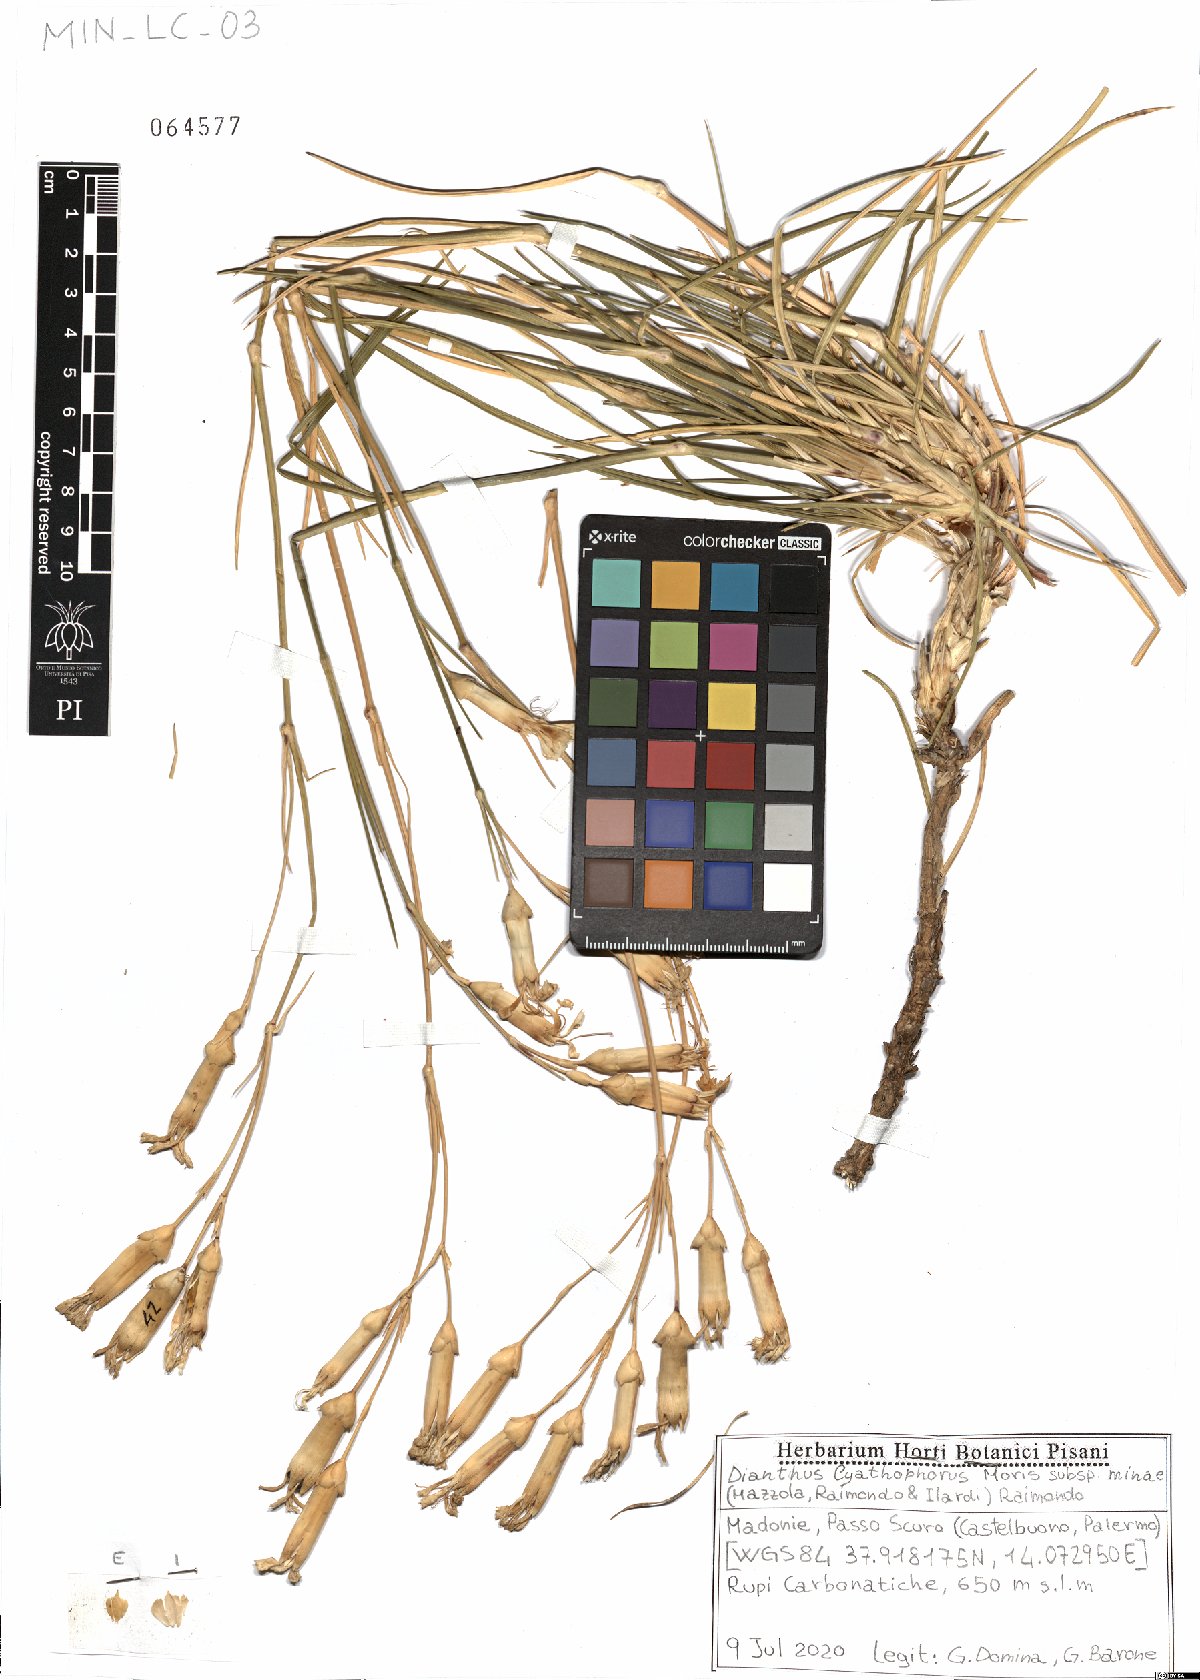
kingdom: Plantae
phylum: Tracheophyta
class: Magnoliopsida
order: Caryophyllales
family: Caryophyllaceae
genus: Dianthus
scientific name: Dianthus siculus
